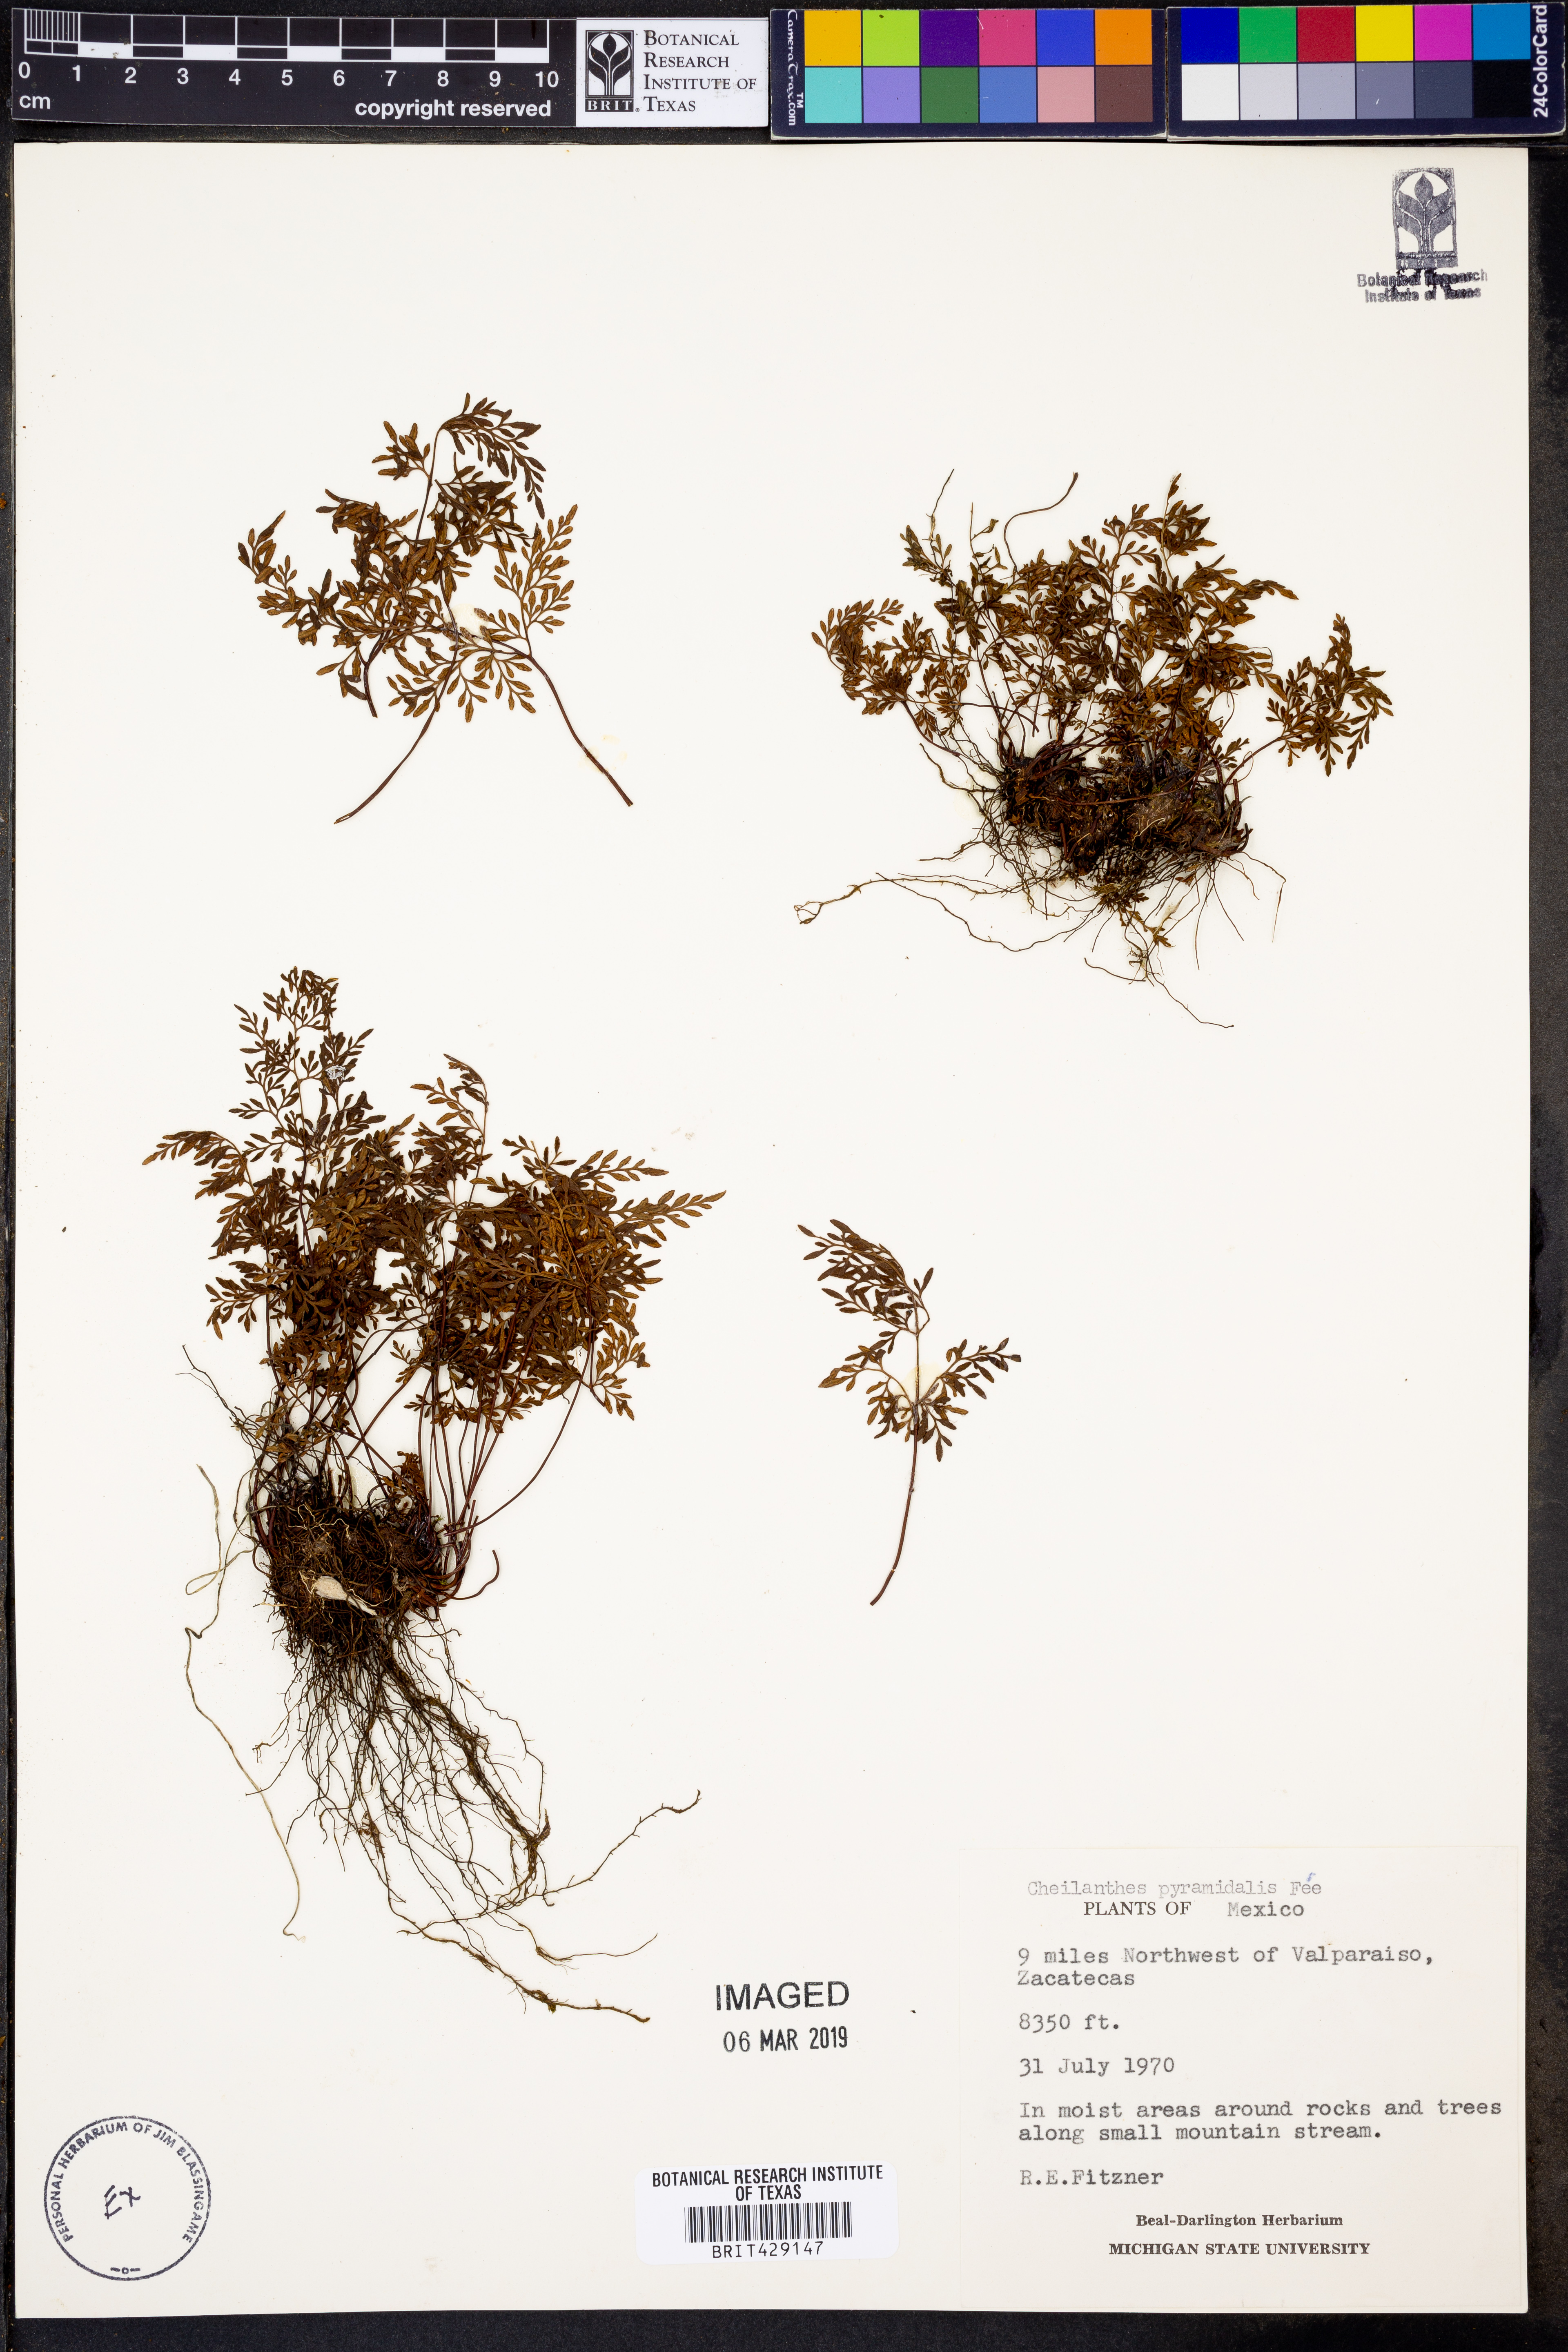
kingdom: Plantae
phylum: Tracheophyta
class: Polypodiopsida
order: Polypodiales
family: Pteridaceae
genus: Gaga
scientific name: Gaga hirsuta
